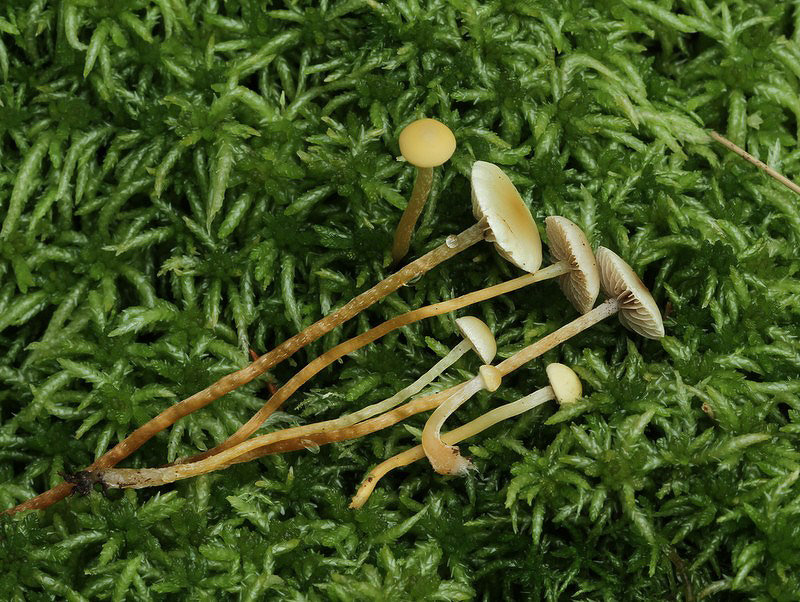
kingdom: Fungi
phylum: Basidiomycota
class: Agaricomycetes
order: Agaricales
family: Strophariaceae
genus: Hypholoma
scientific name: Hypholoma elongatum
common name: slank svovlhat
